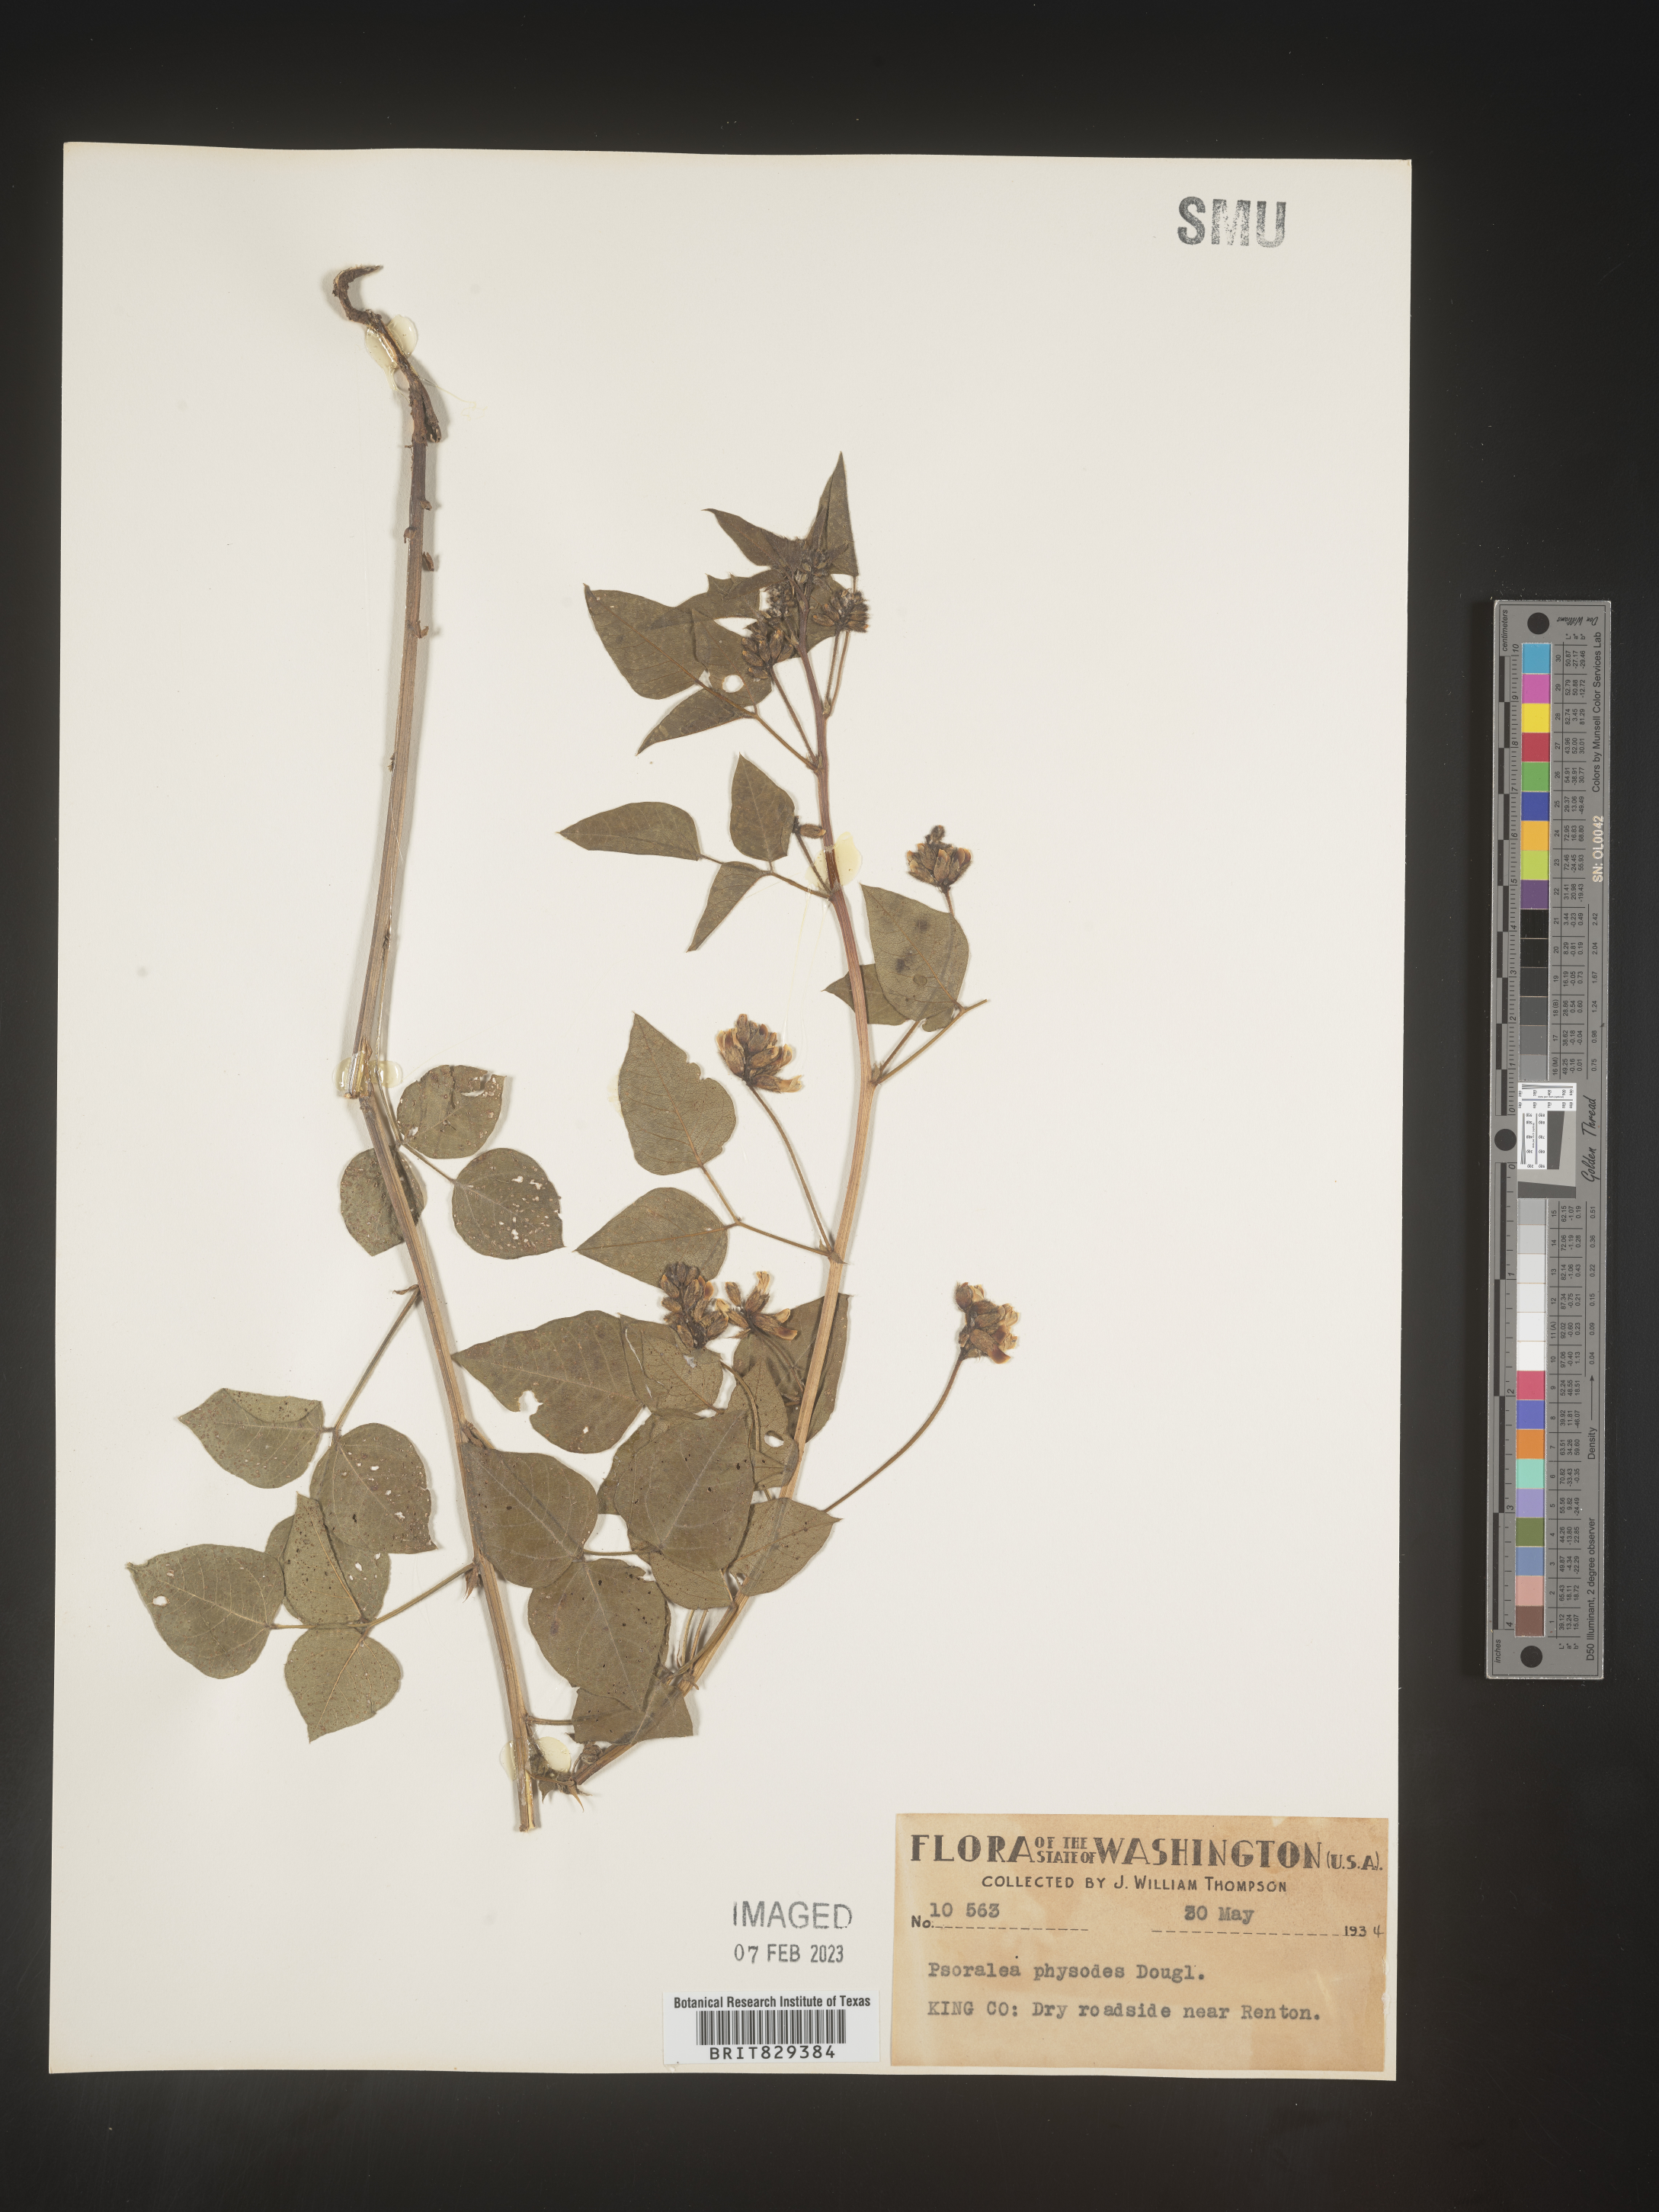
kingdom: Plantae
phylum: Tracheophyta
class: Magnoliopsida
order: Fabales
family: Fabaceae
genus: Psoralea
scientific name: Psoralea
